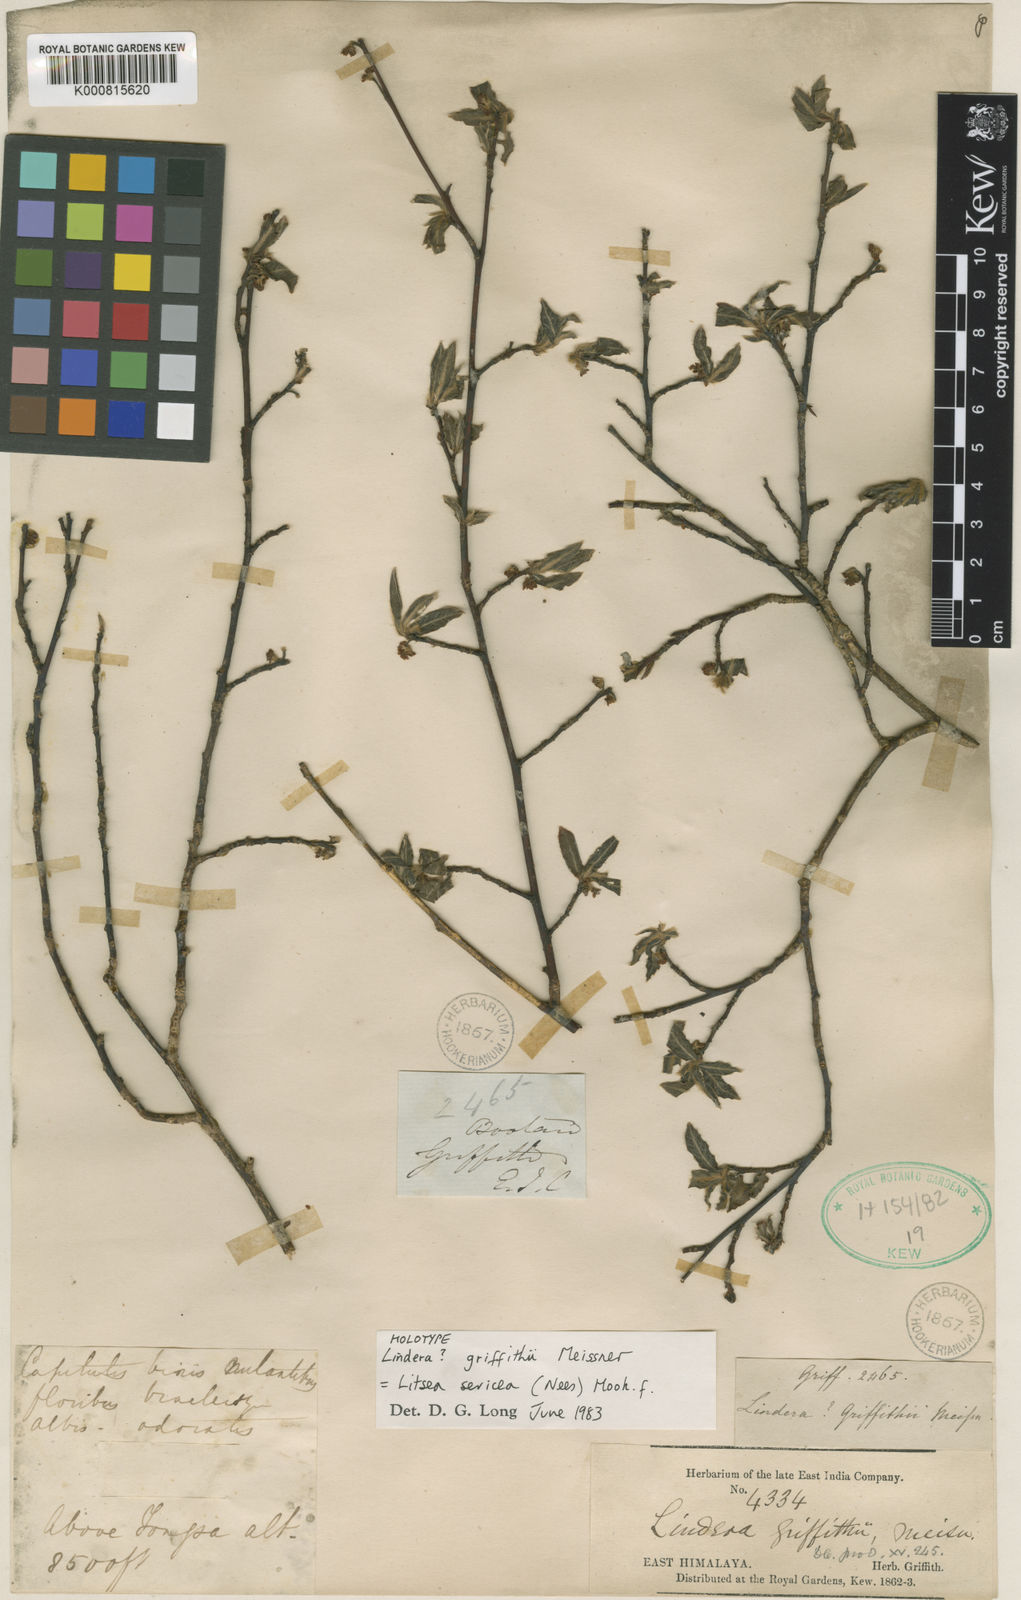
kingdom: Plantae
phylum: Tracheophyta
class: Magnoliopsida
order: Laurales
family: Lauraceae
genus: Litsea
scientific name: Litsea sericea
